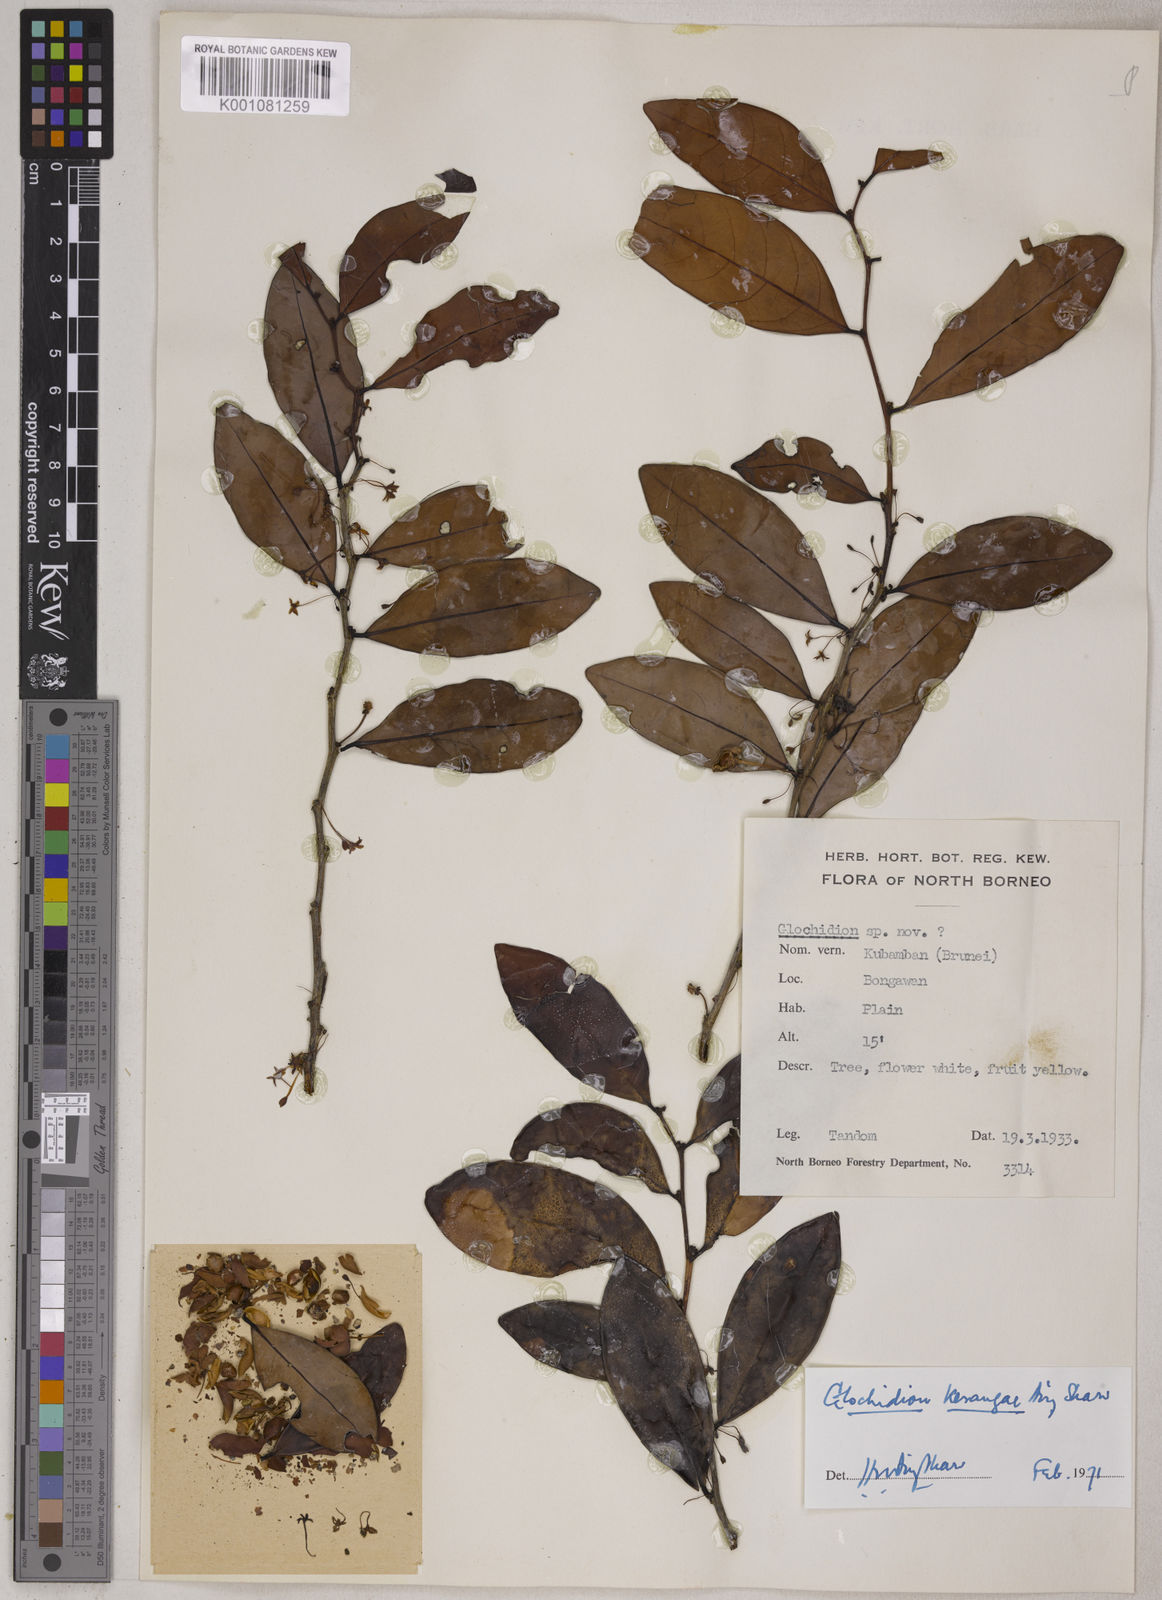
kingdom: Plantae
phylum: Tracheophyta
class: Magnoliopsida
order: Malpighiales
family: Phyllanthaceae
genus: Glochidion
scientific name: Glochidion kerangae
